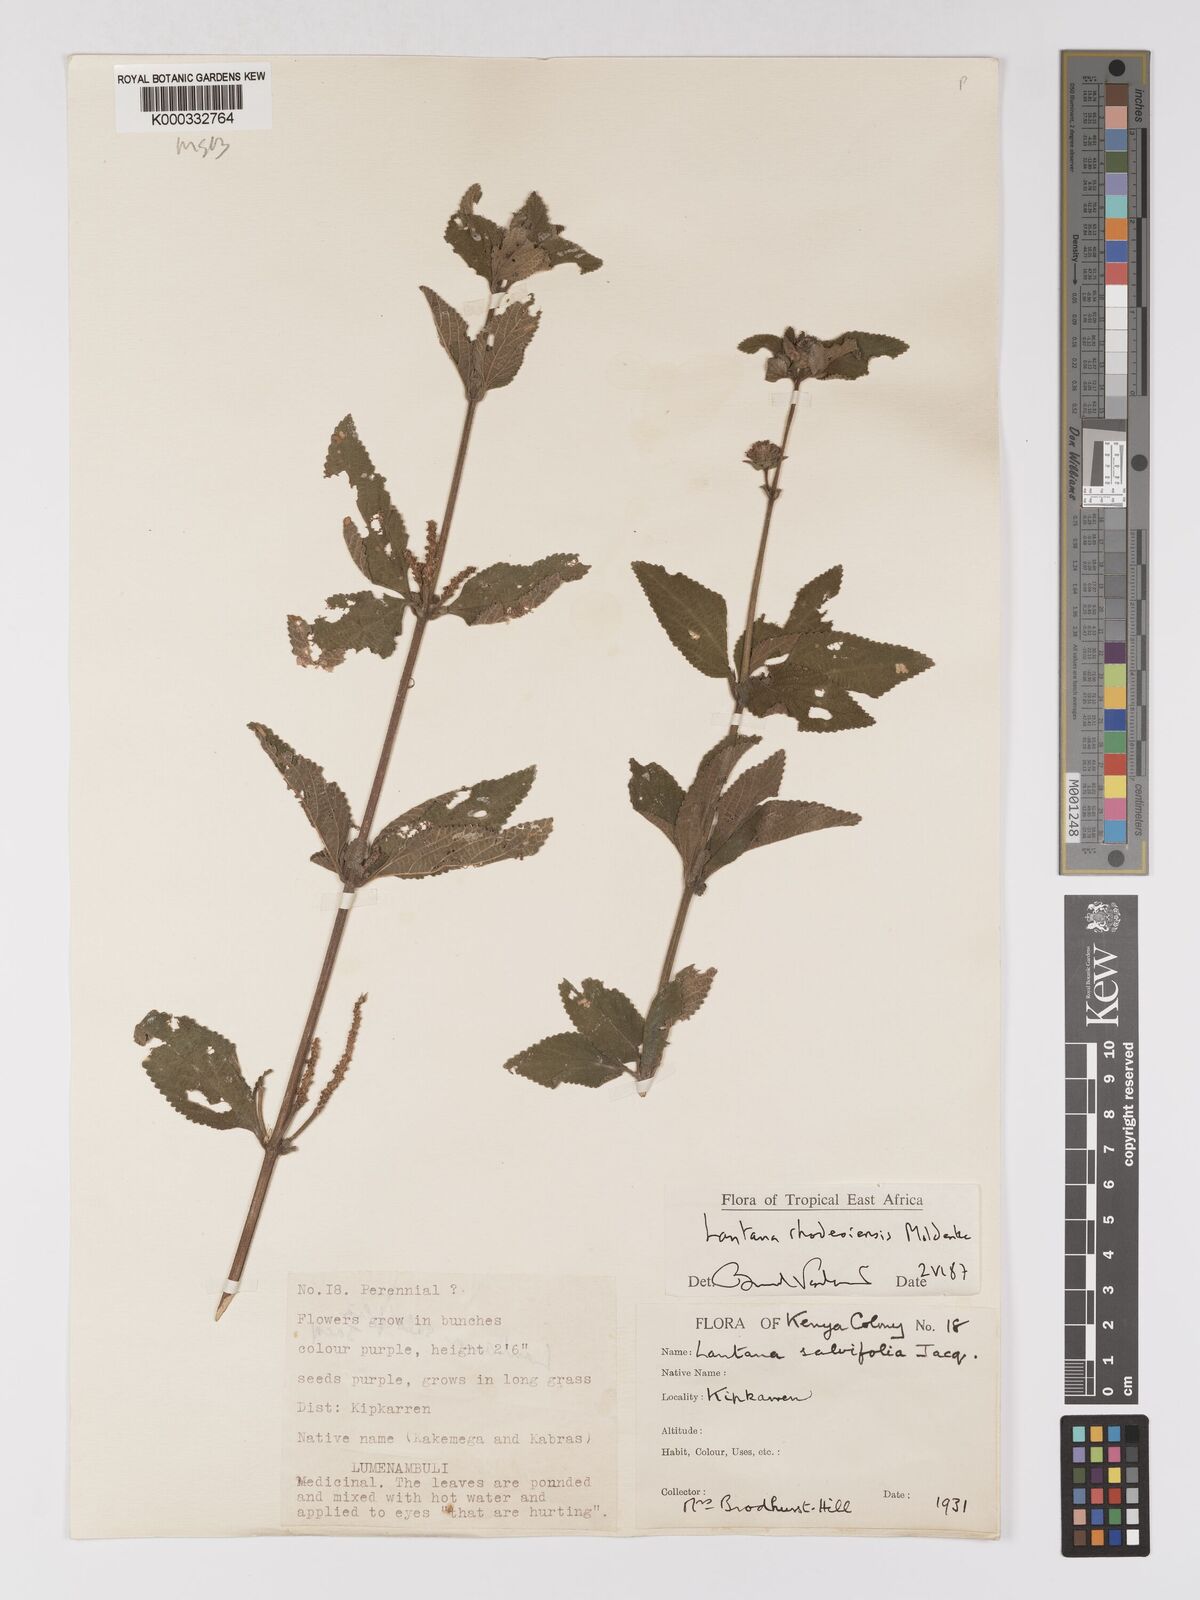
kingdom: Plantae
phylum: Tracheophyta
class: Magnoliopsida
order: Lamiales
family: Verbenaceae
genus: Lantana
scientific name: Lantana ukambensis
